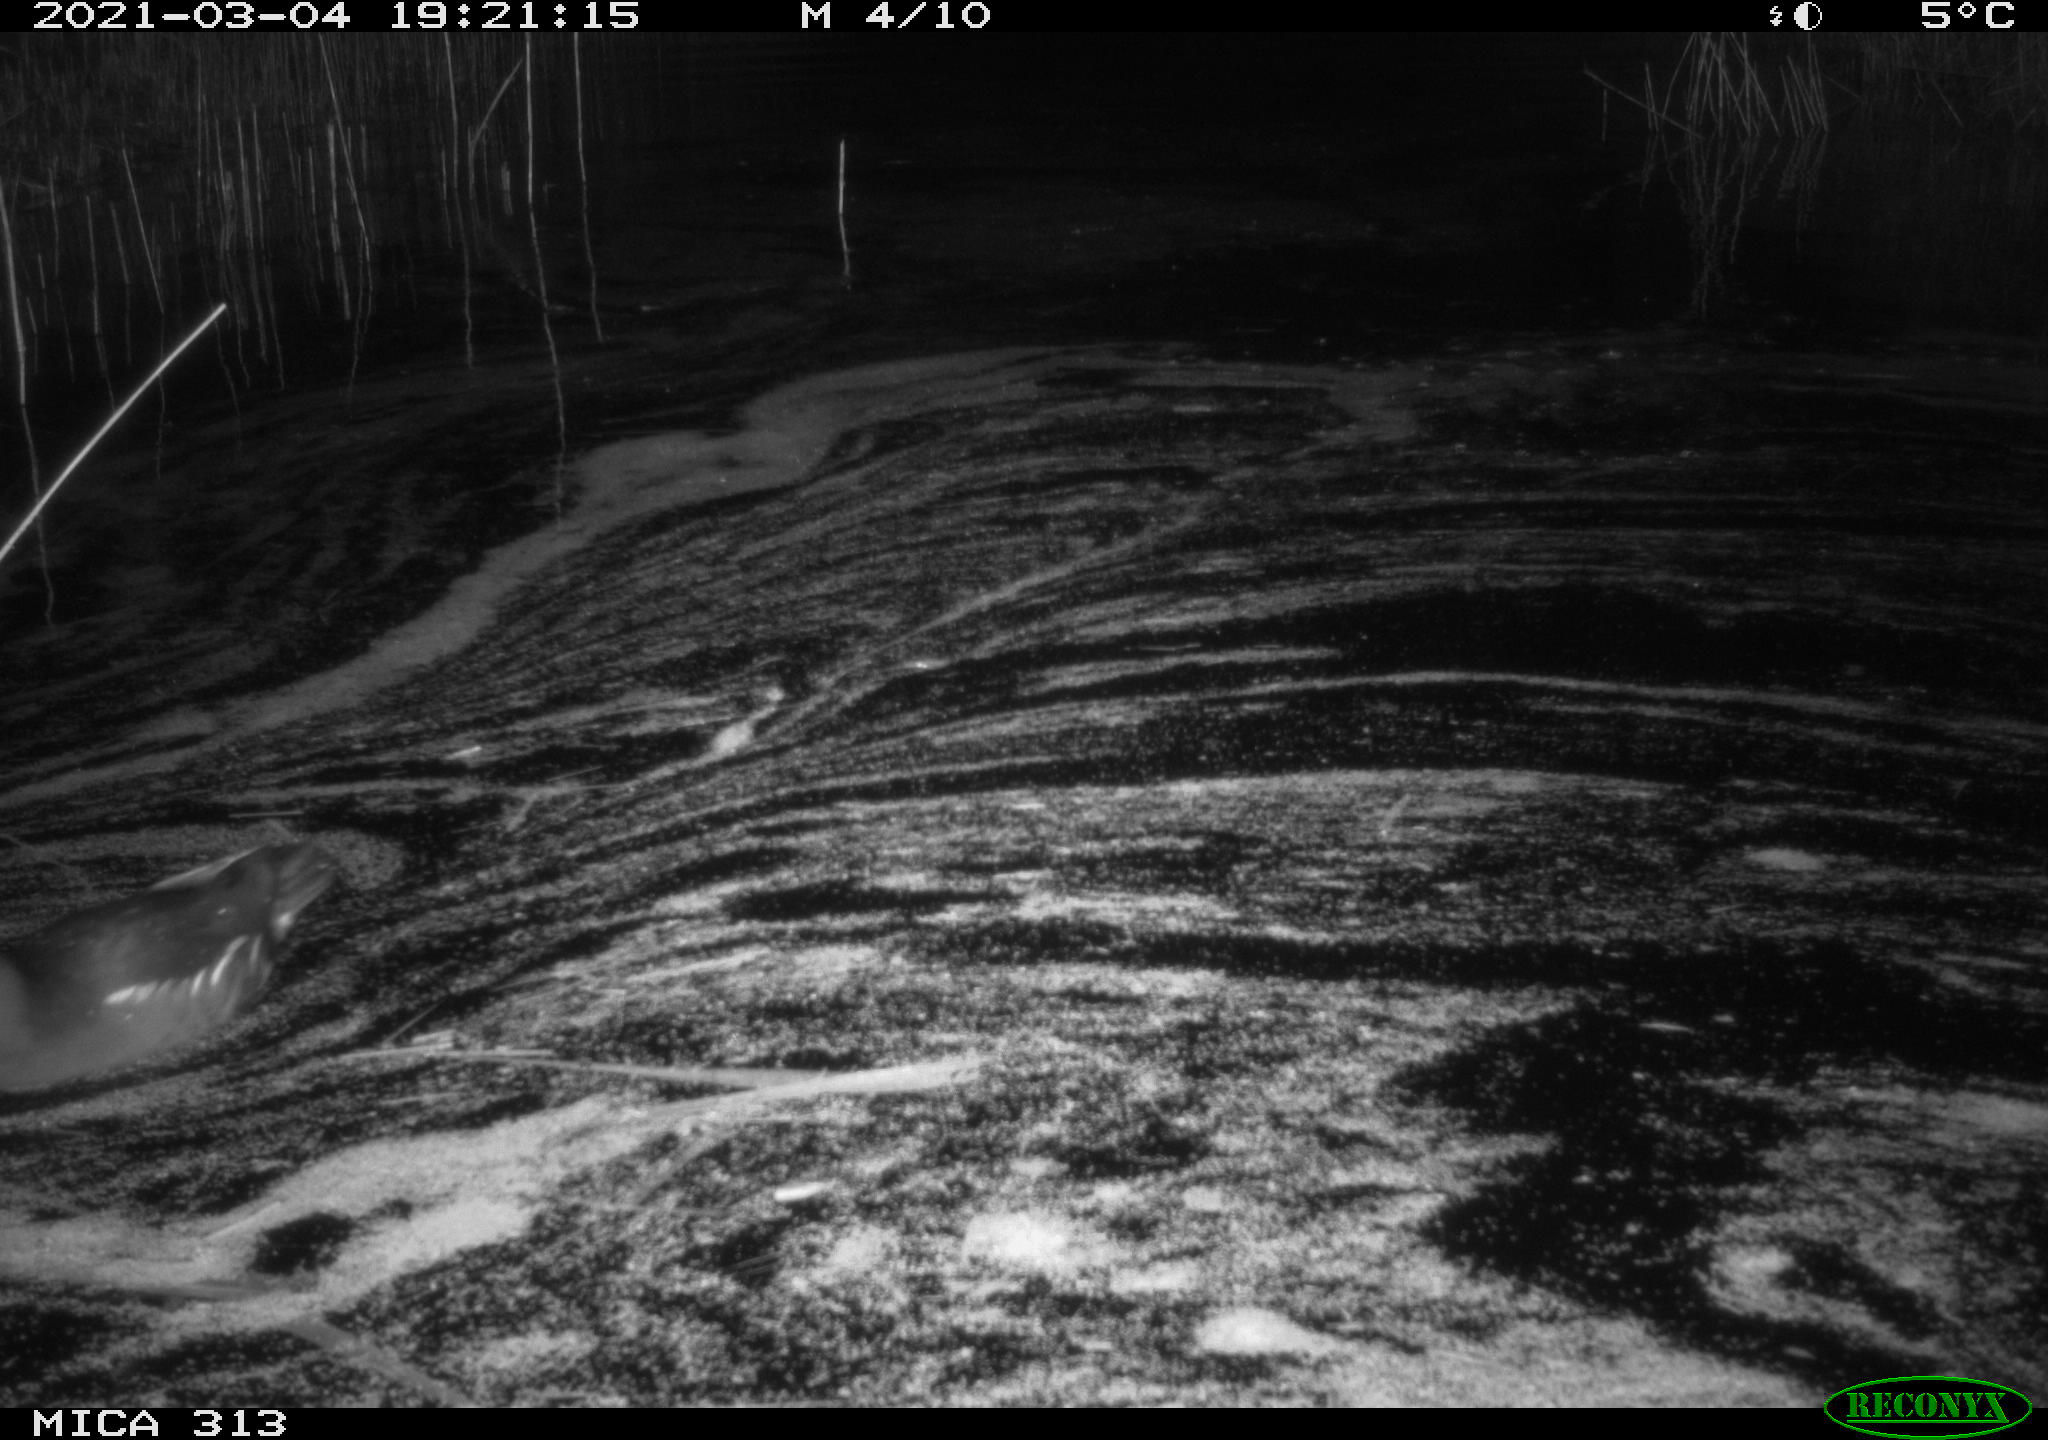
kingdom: Animalia
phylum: Chordata
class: Aves
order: Gruiformes
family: Rallidae
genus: Gallinula
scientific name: Gallinula chloropus
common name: Common moorhen
